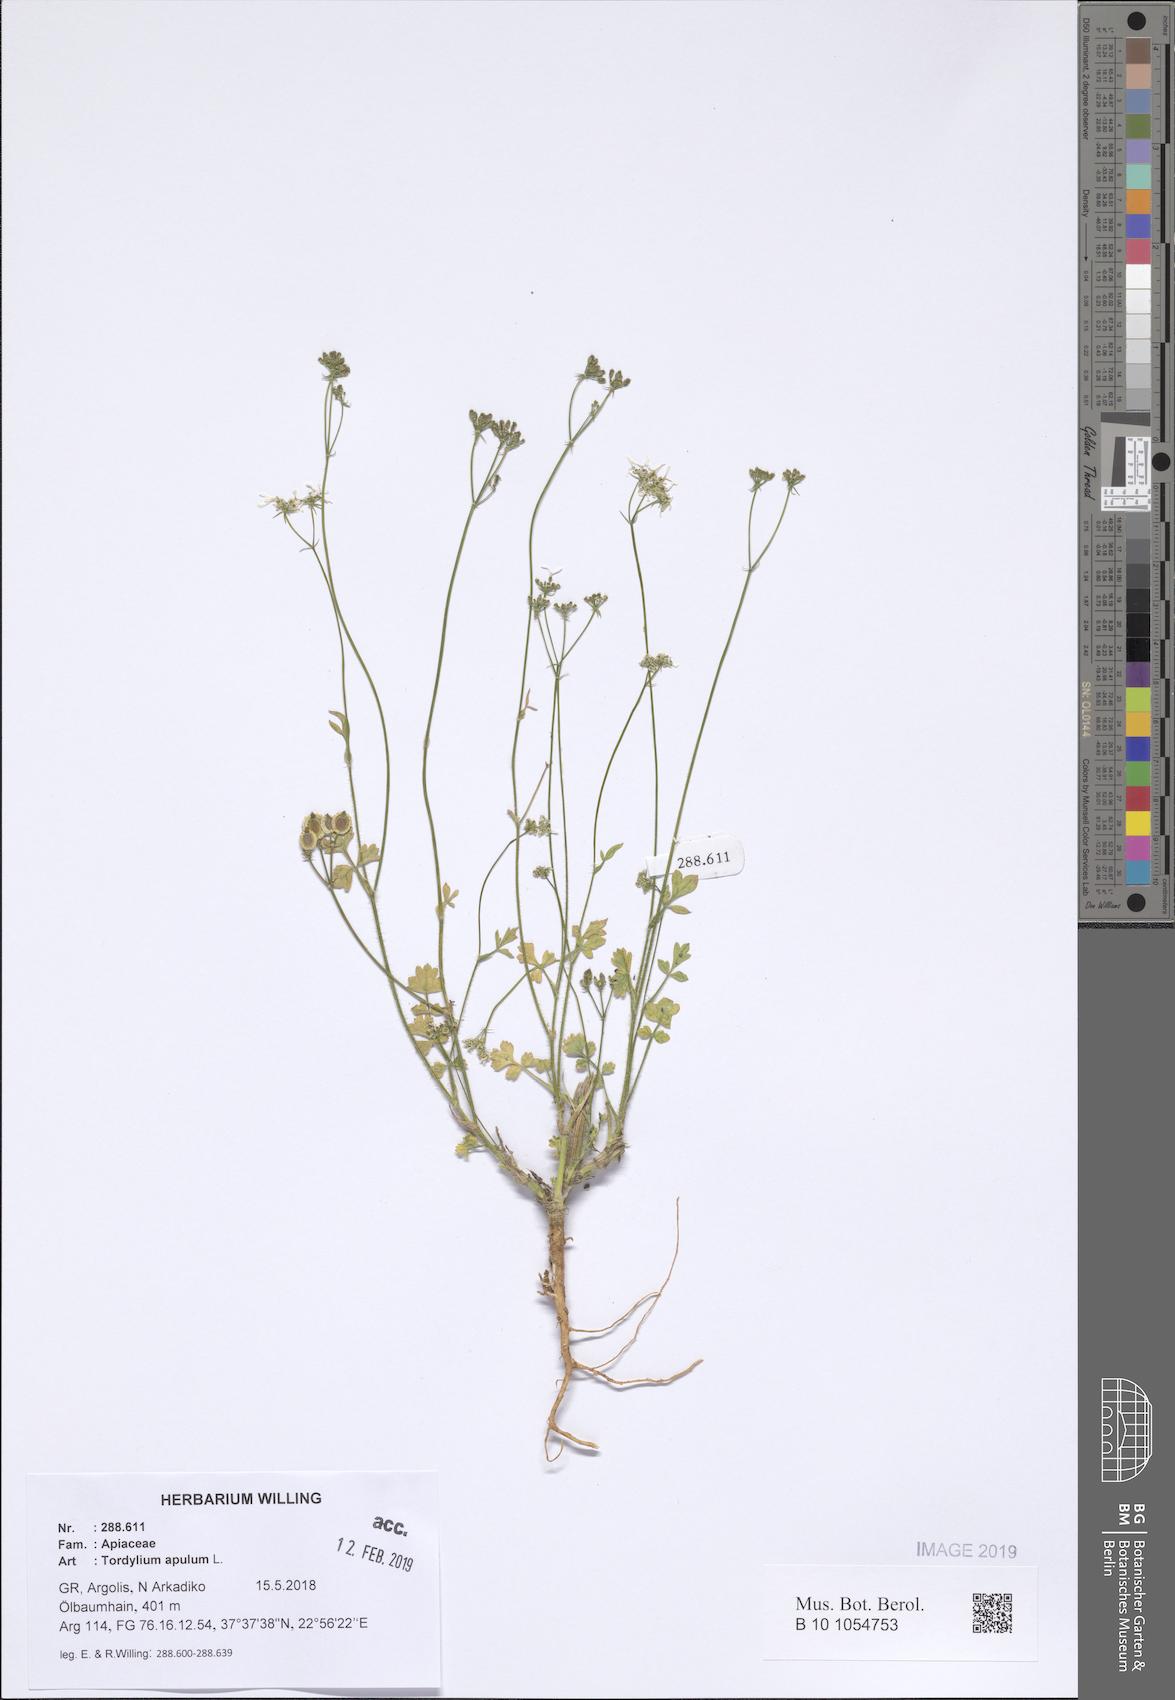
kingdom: Plantae
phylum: Tracheophyta
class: Magnoliopsida
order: Apiales
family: Apiaceae
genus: Tordylium
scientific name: Tordylium apulum
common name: Mediterranean hartwort
